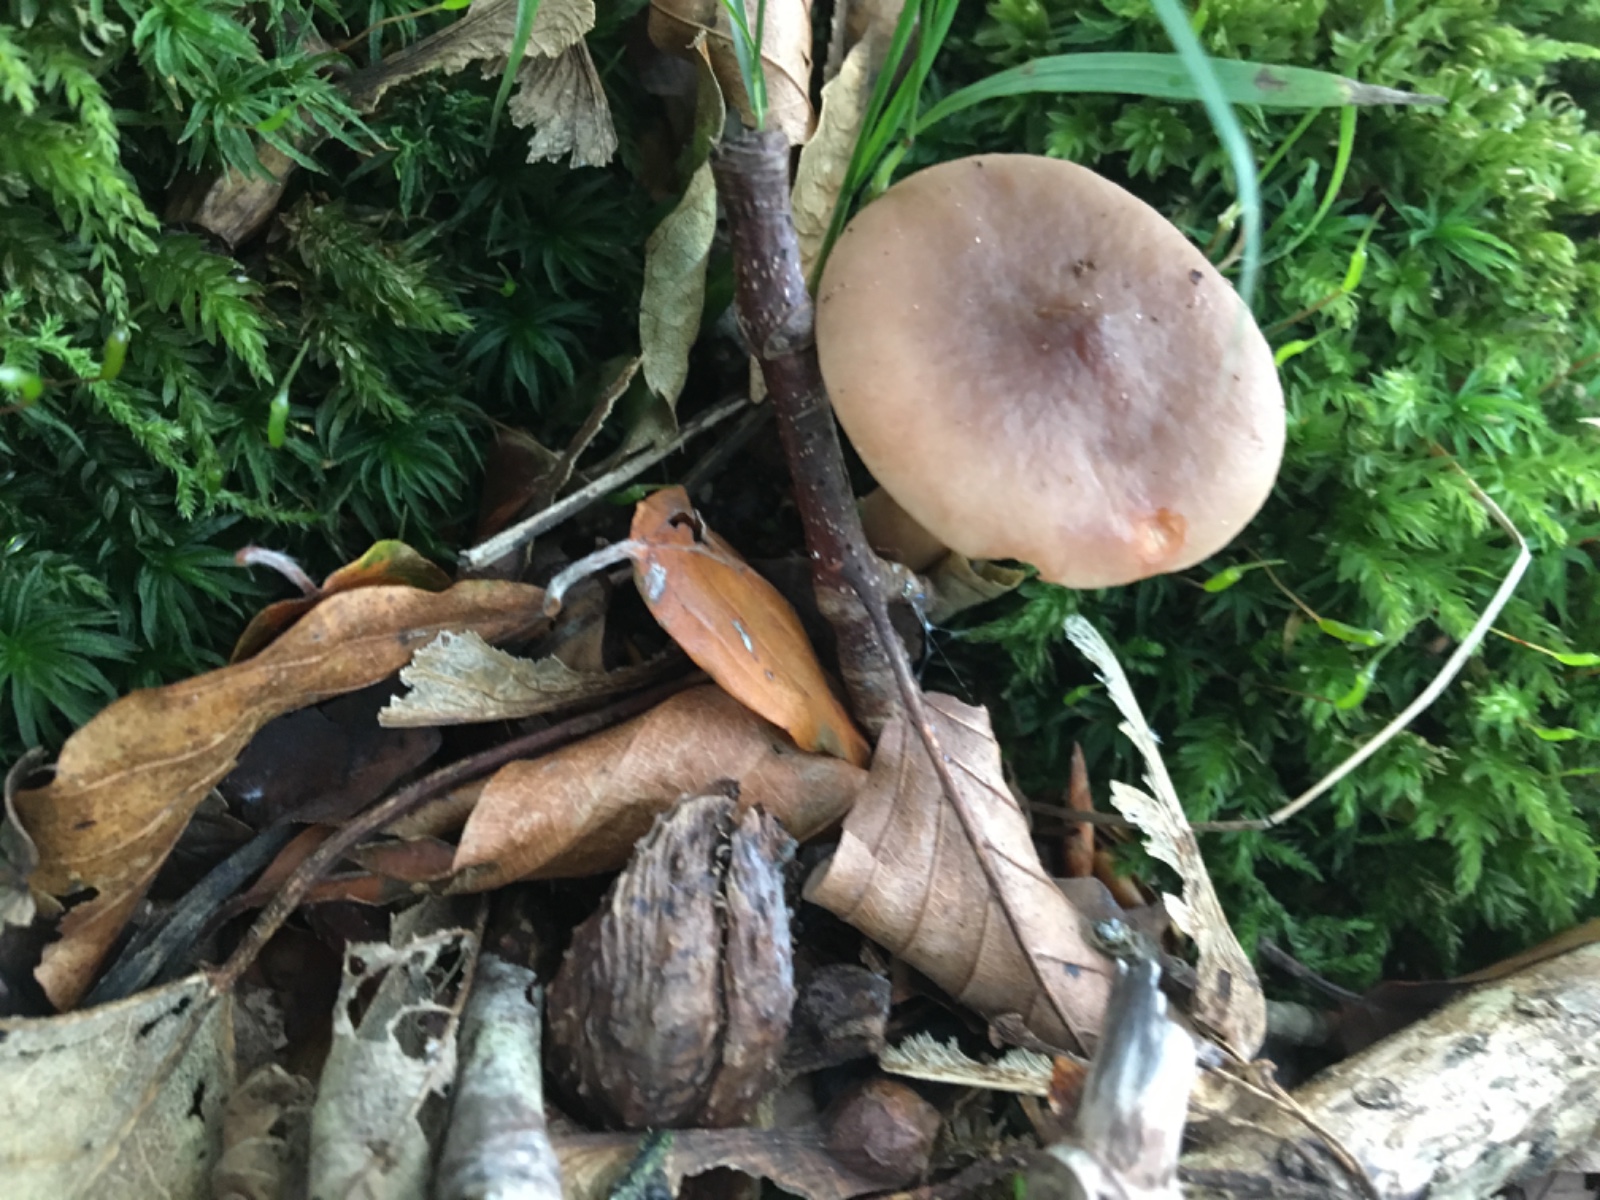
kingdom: Fungi
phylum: Basidiomycota
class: Agaricomycetes
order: Russulales
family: Russulaceae
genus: Lactarius
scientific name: Lactarius subdulcis
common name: sødlig mælkehat
